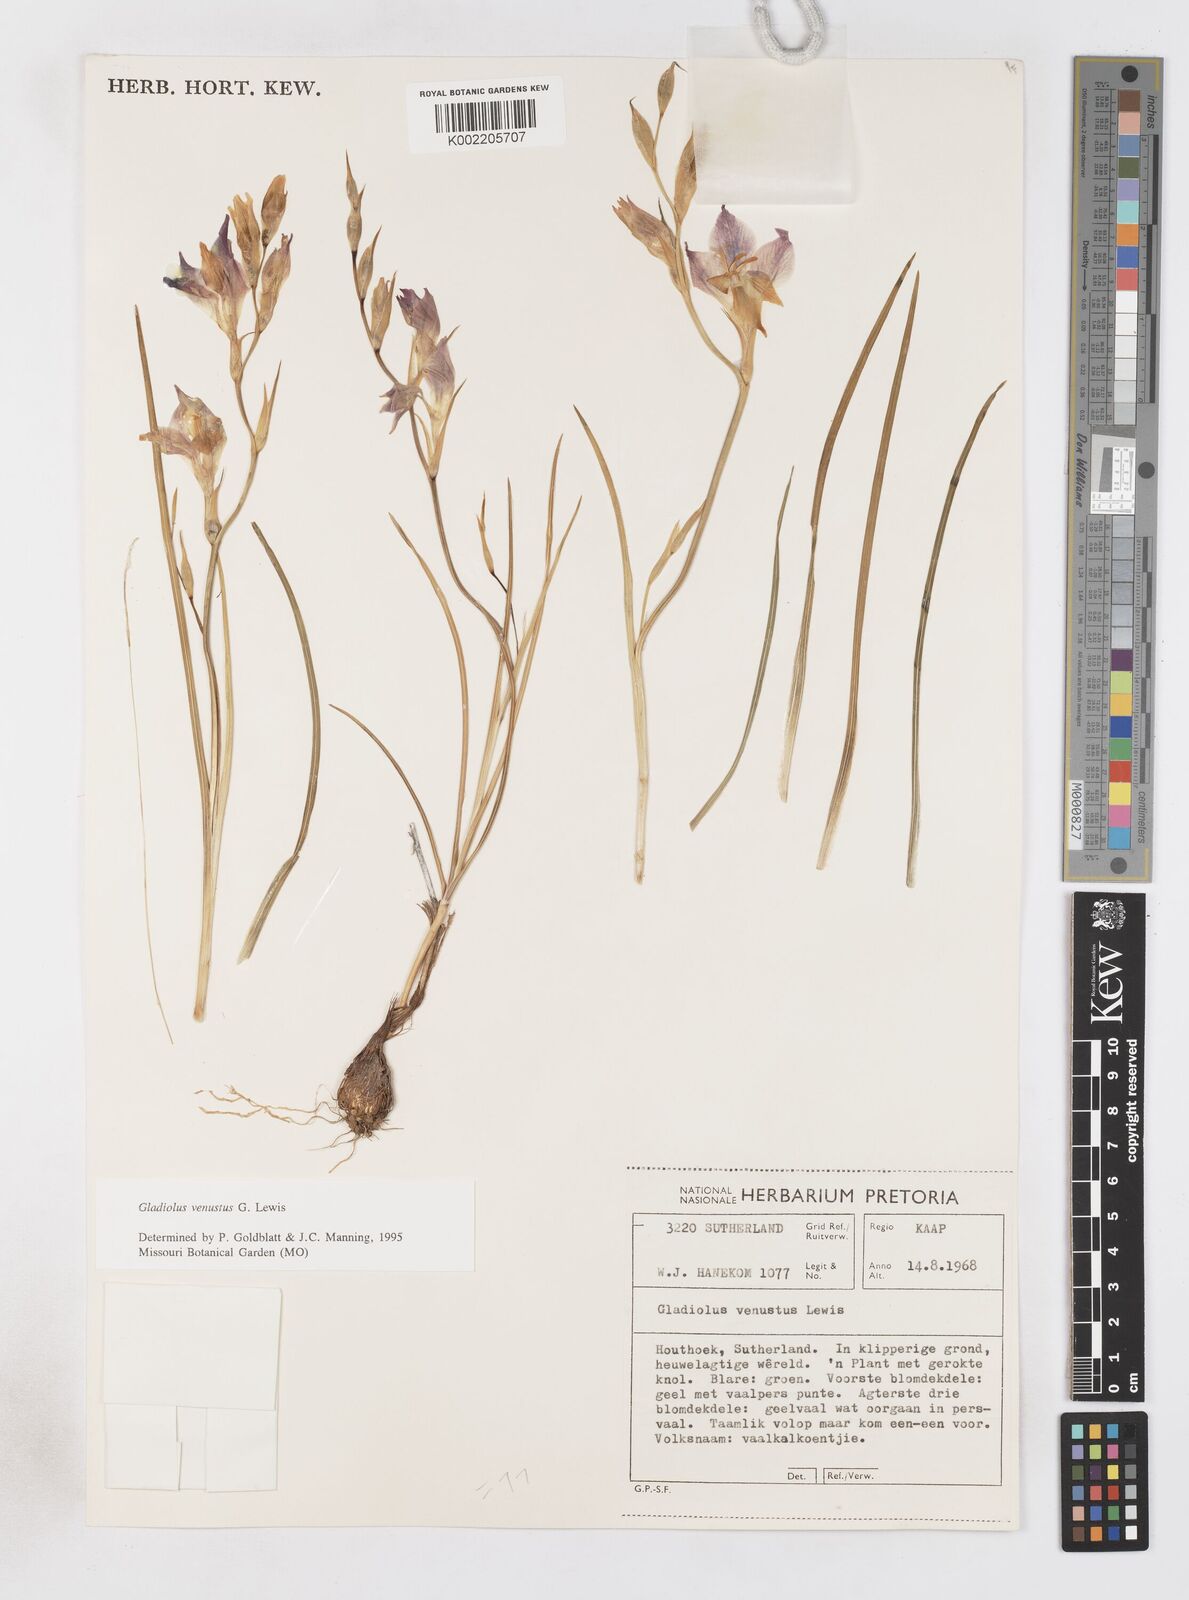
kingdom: Plantae
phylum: Tracheophyta
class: Liliopsida
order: Asparagales
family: Iridaceae
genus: Gladiolus
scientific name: Gladiolus densiflorus
